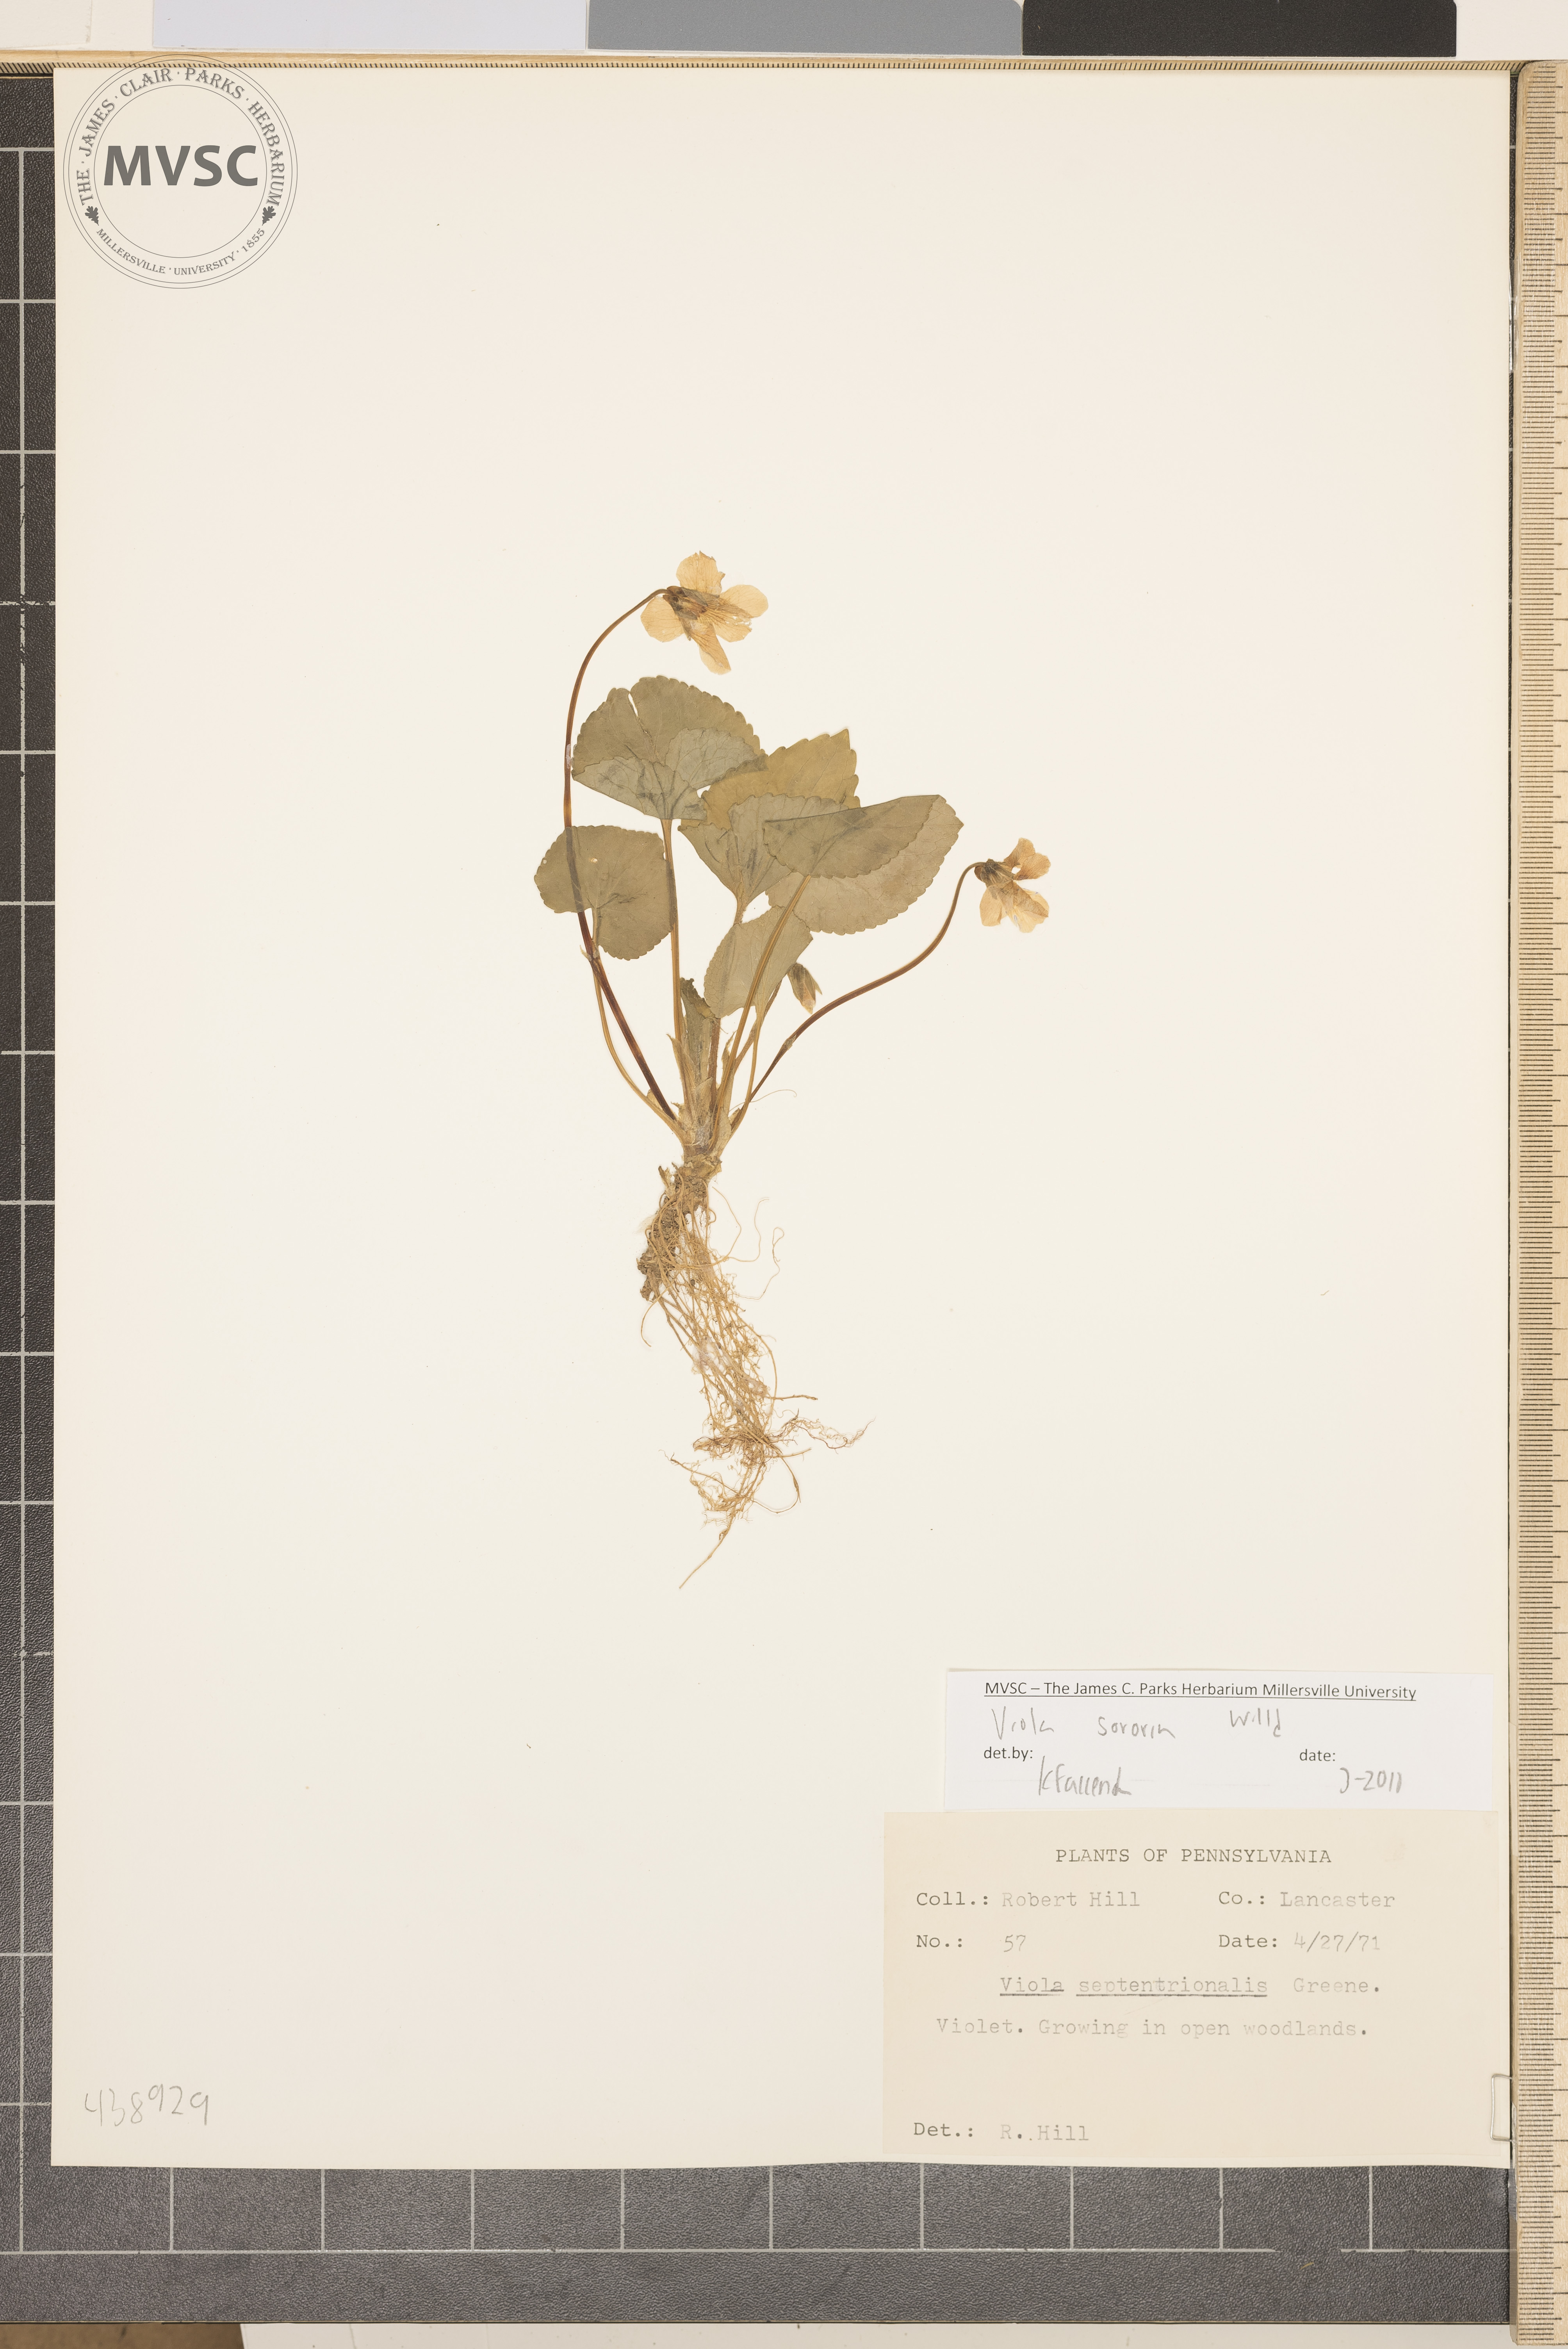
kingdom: Plantae
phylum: Tracheophyta
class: Magnoliopsida
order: Malpighiales
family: Violaceae
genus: Viola
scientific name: Viola sororia
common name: Dooryard violet
